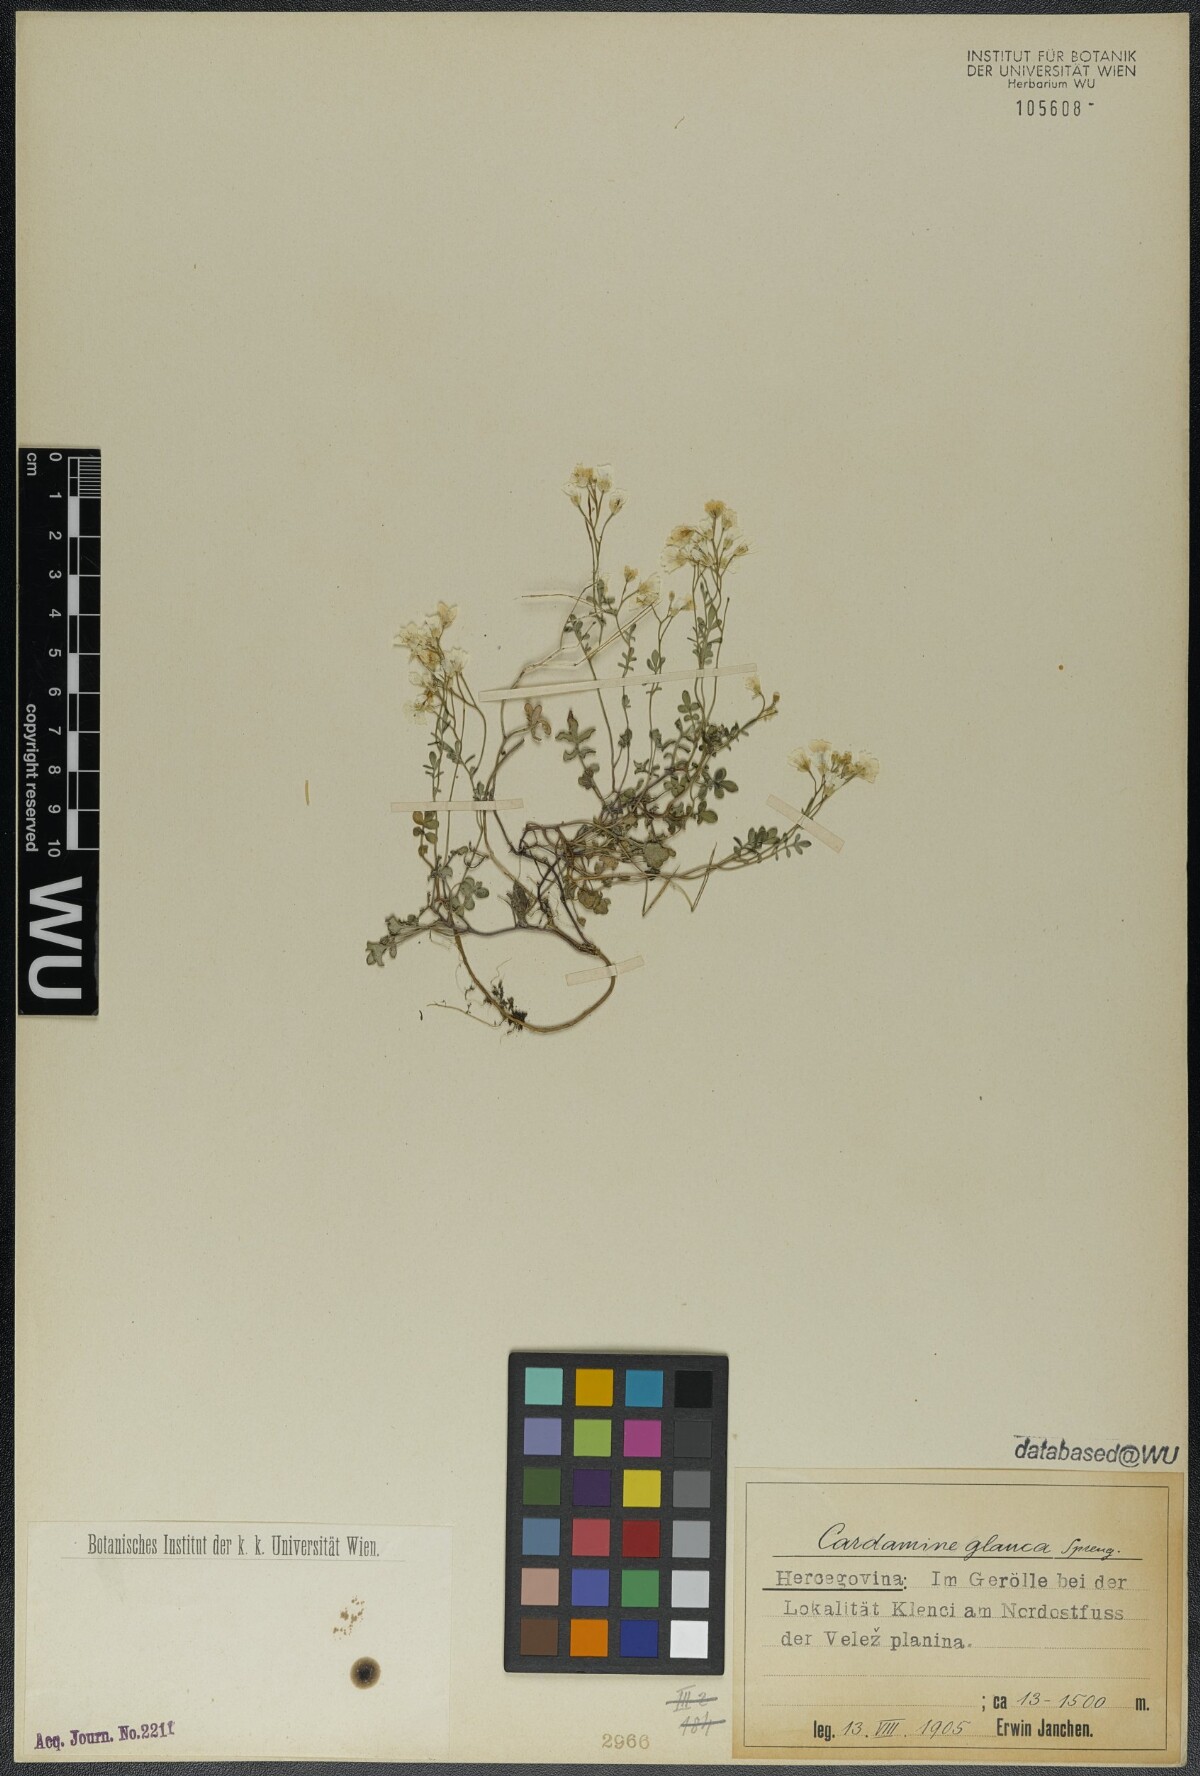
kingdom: Plantae
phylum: Tracheophyta
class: Magnoliopsida
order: Brassicales
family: Brassicaceae
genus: Cardamine
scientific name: Cardamine glauca
